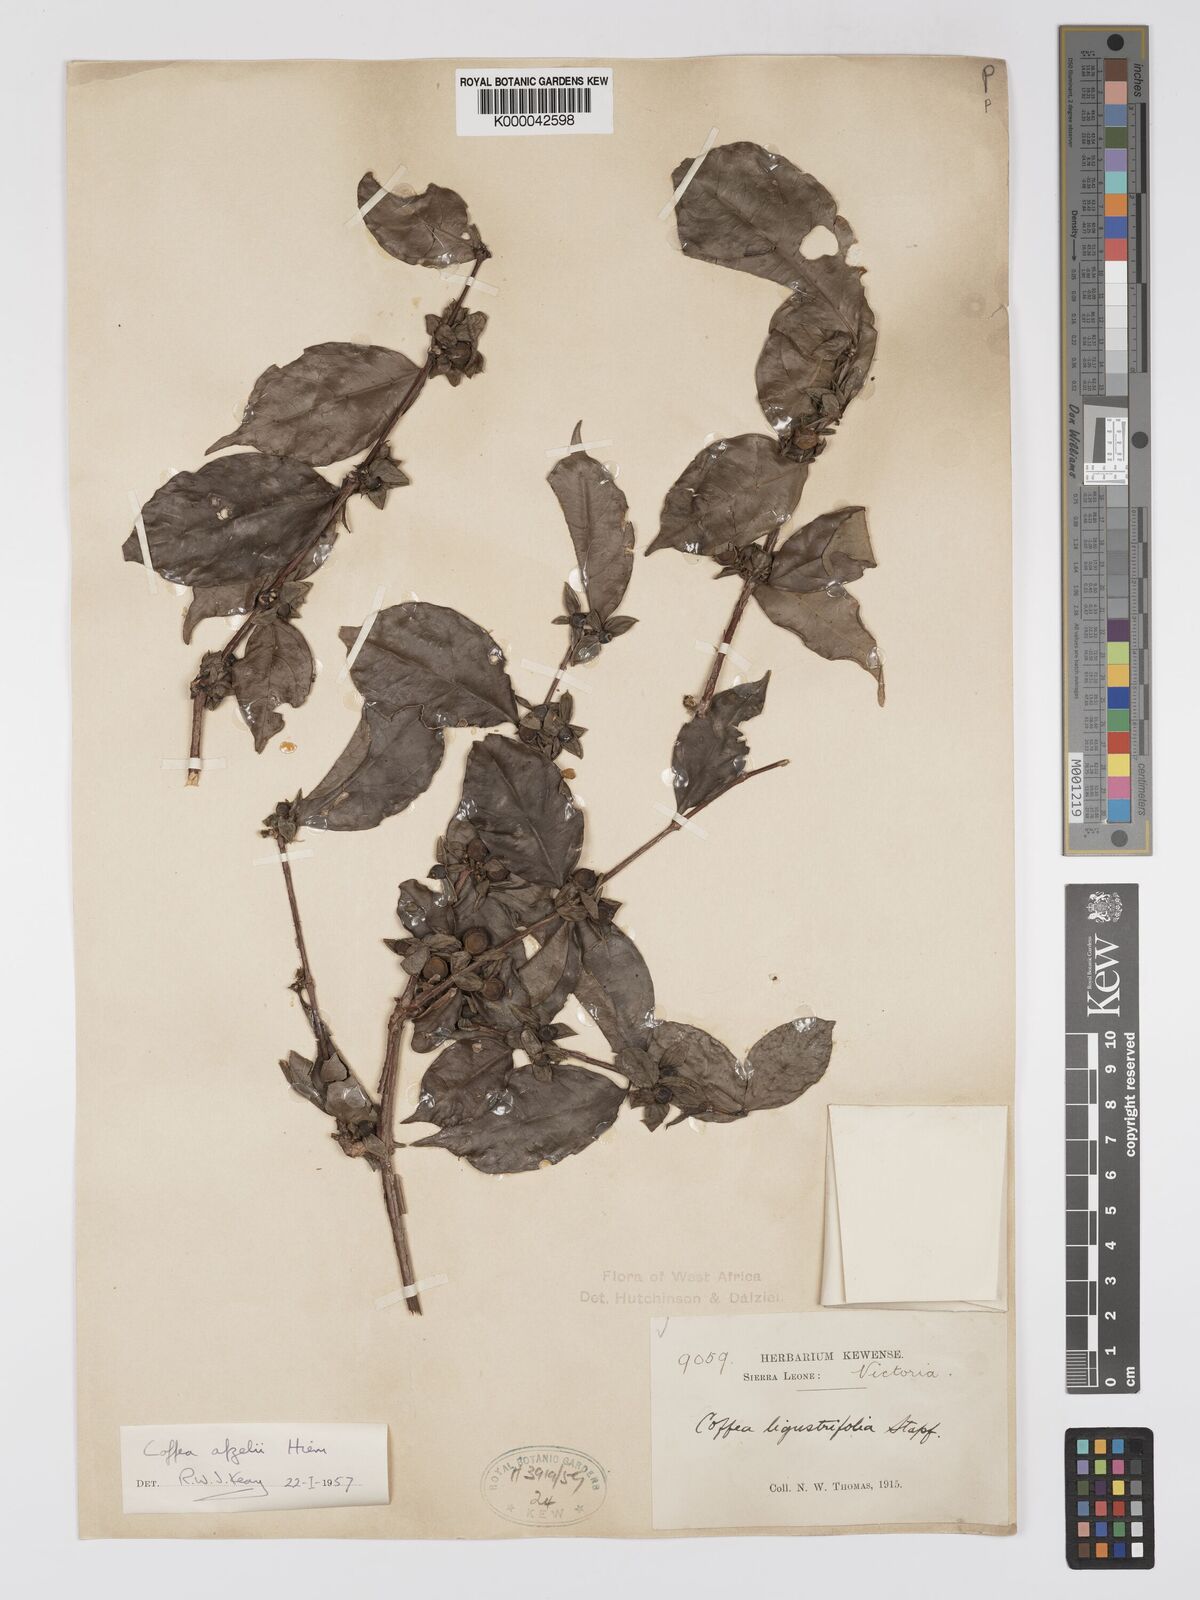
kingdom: Plantae
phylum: Tracheophyta
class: Magnoliopsida
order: Gentianales
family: Rubiaceae
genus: Argocoffeopsis
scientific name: Argocoffeopsis afzelii
